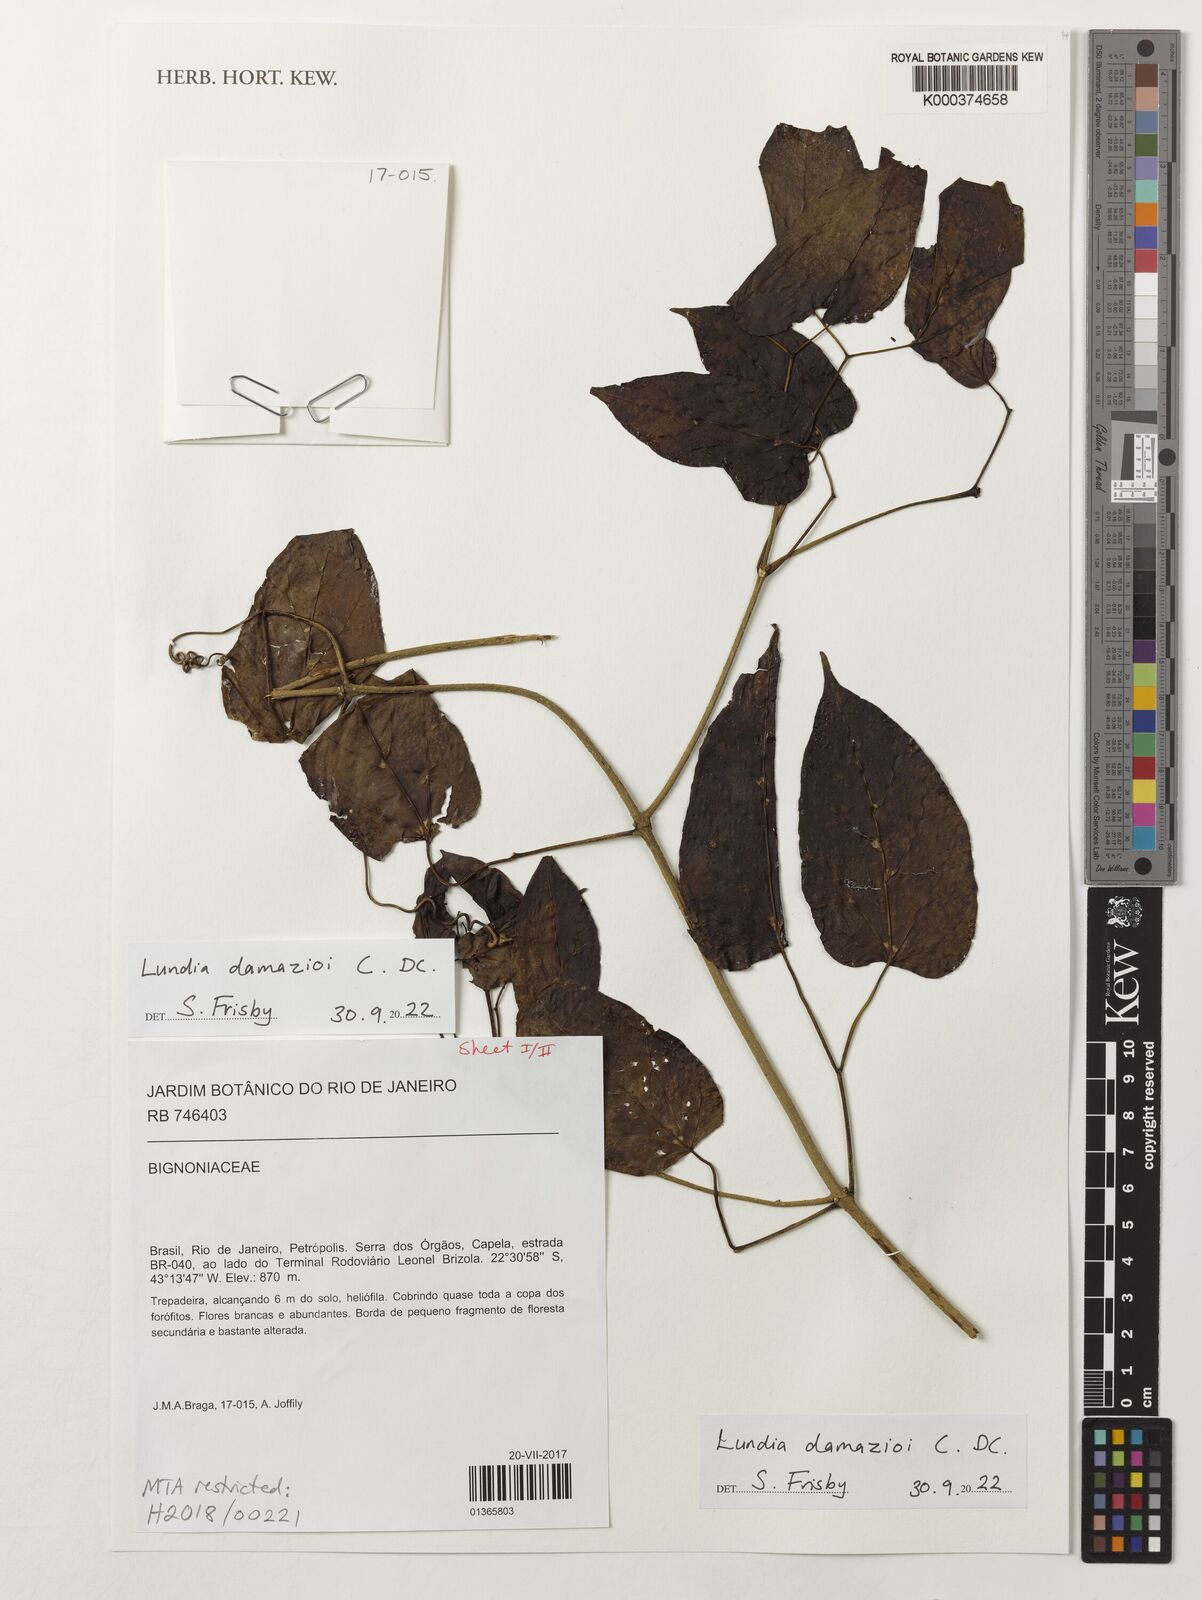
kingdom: Plantae
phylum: Tracheophyta
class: Magnoliopsida
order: Lamiales
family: Bignoniaceae
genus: Lundia
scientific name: Lundia damazioi
